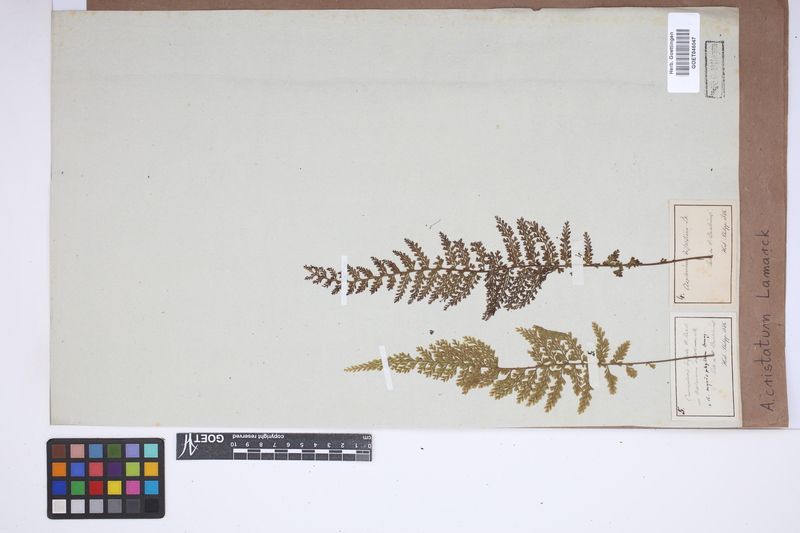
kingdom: Plantae
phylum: Tracheophyta
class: Polypodiopsida
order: Polypodiales
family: Aspleniaceae
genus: Asplenium
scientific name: Asplenium cristatum
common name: Parsley spleenwort
